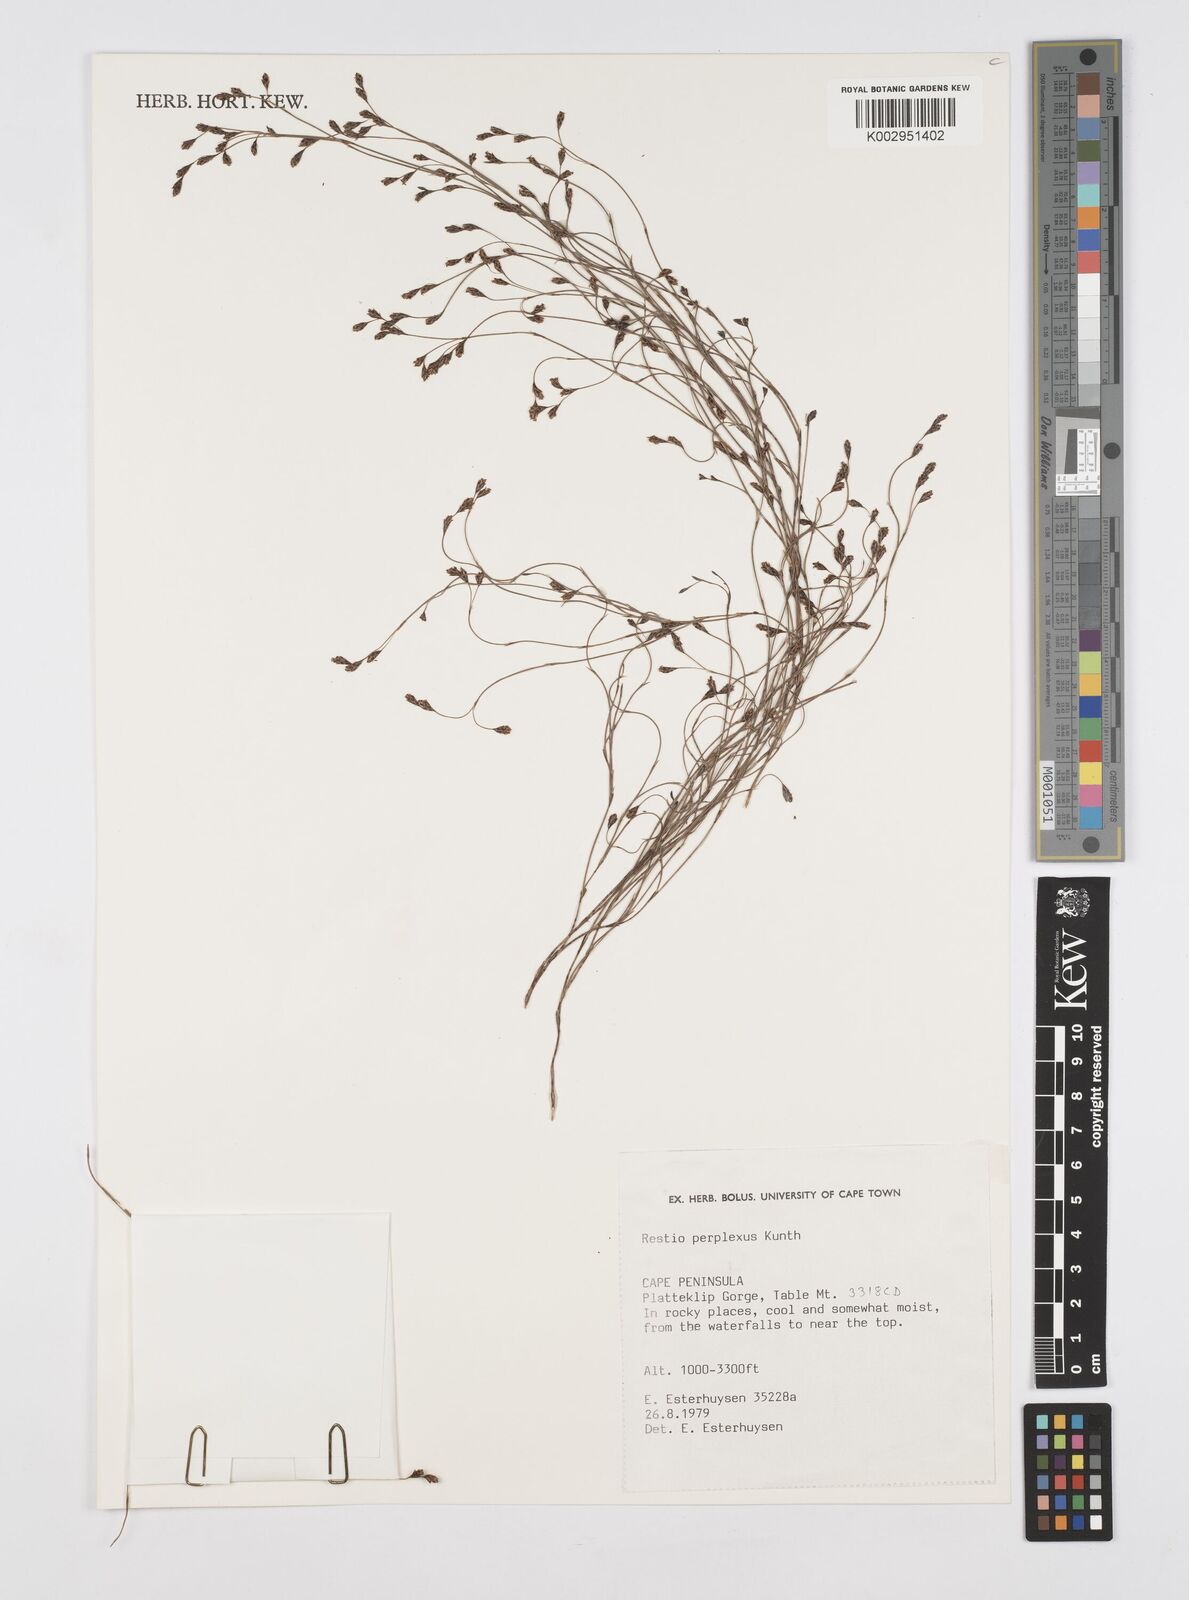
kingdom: Plantae
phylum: Tracheophyta
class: Liliopsida
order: Poales
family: Restionaceae
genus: Restio
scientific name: Restio perplexus
